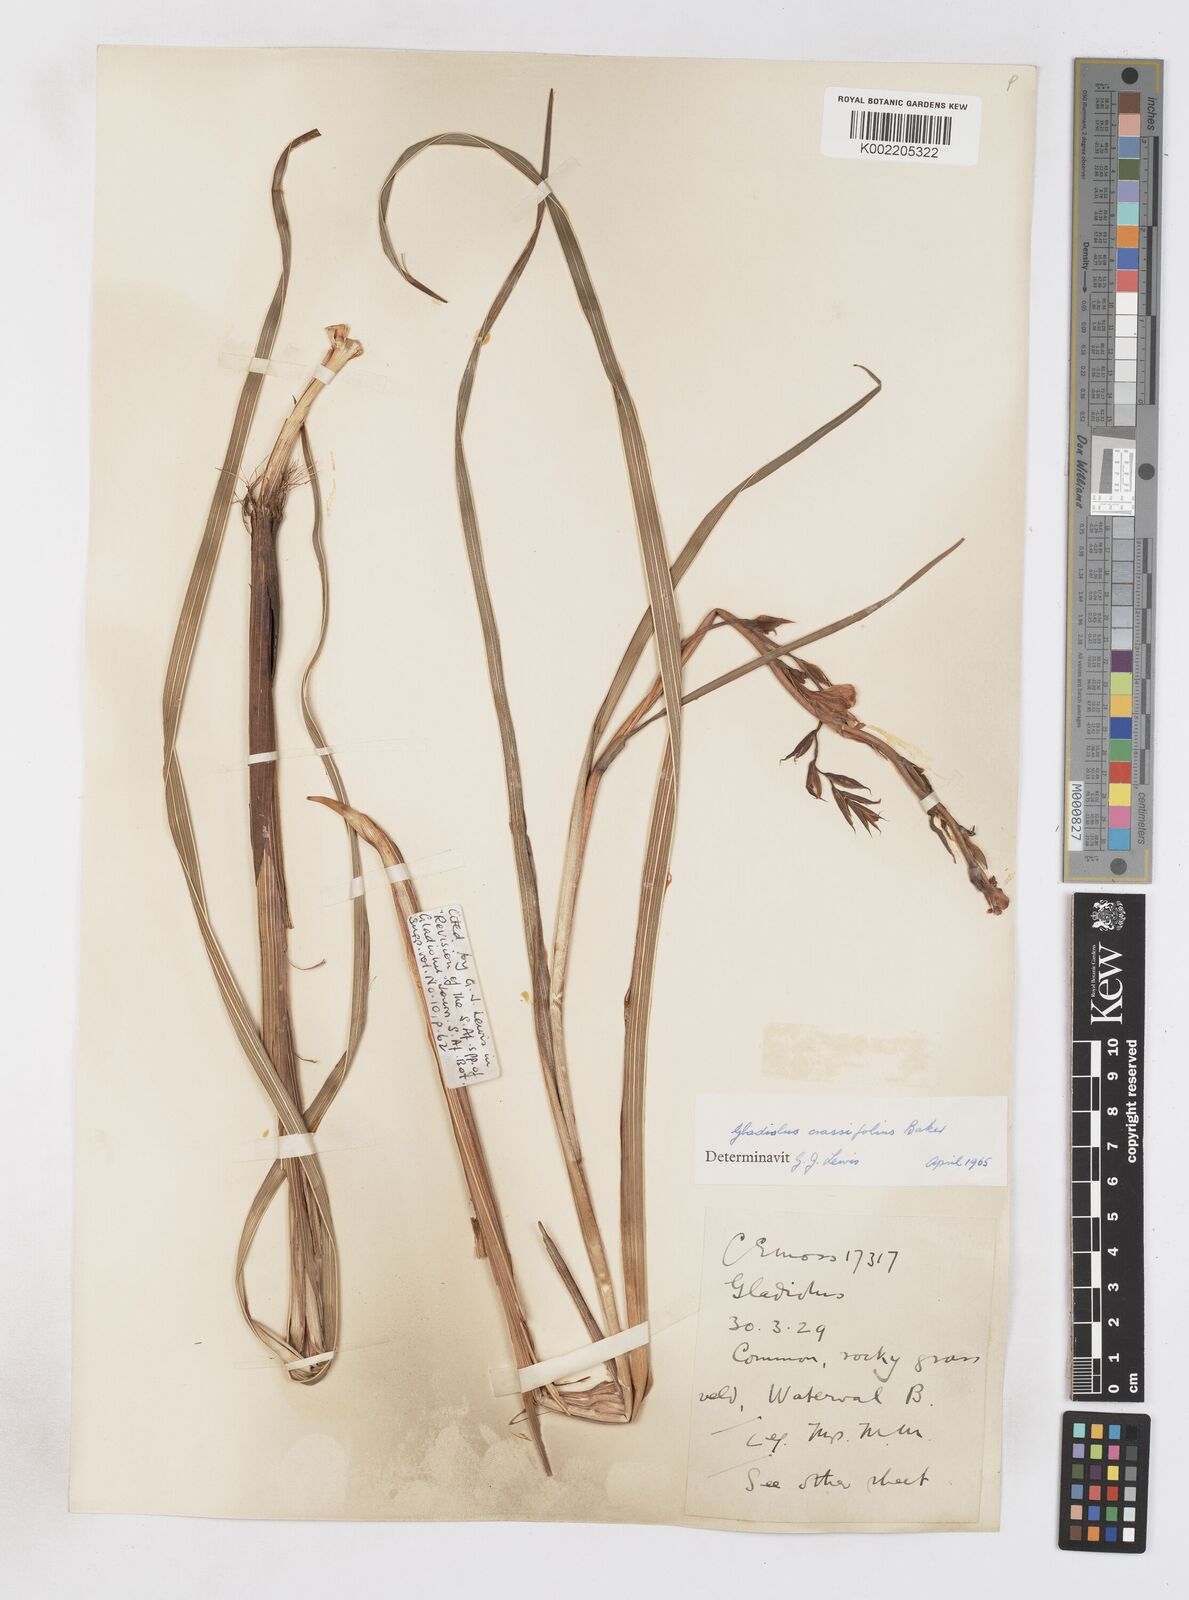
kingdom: Plantae
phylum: Tracheophyta
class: Liliopsida
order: Asparagales
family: Iridaceae
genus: Gladiolus
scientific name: Gladiolus crassifolius
